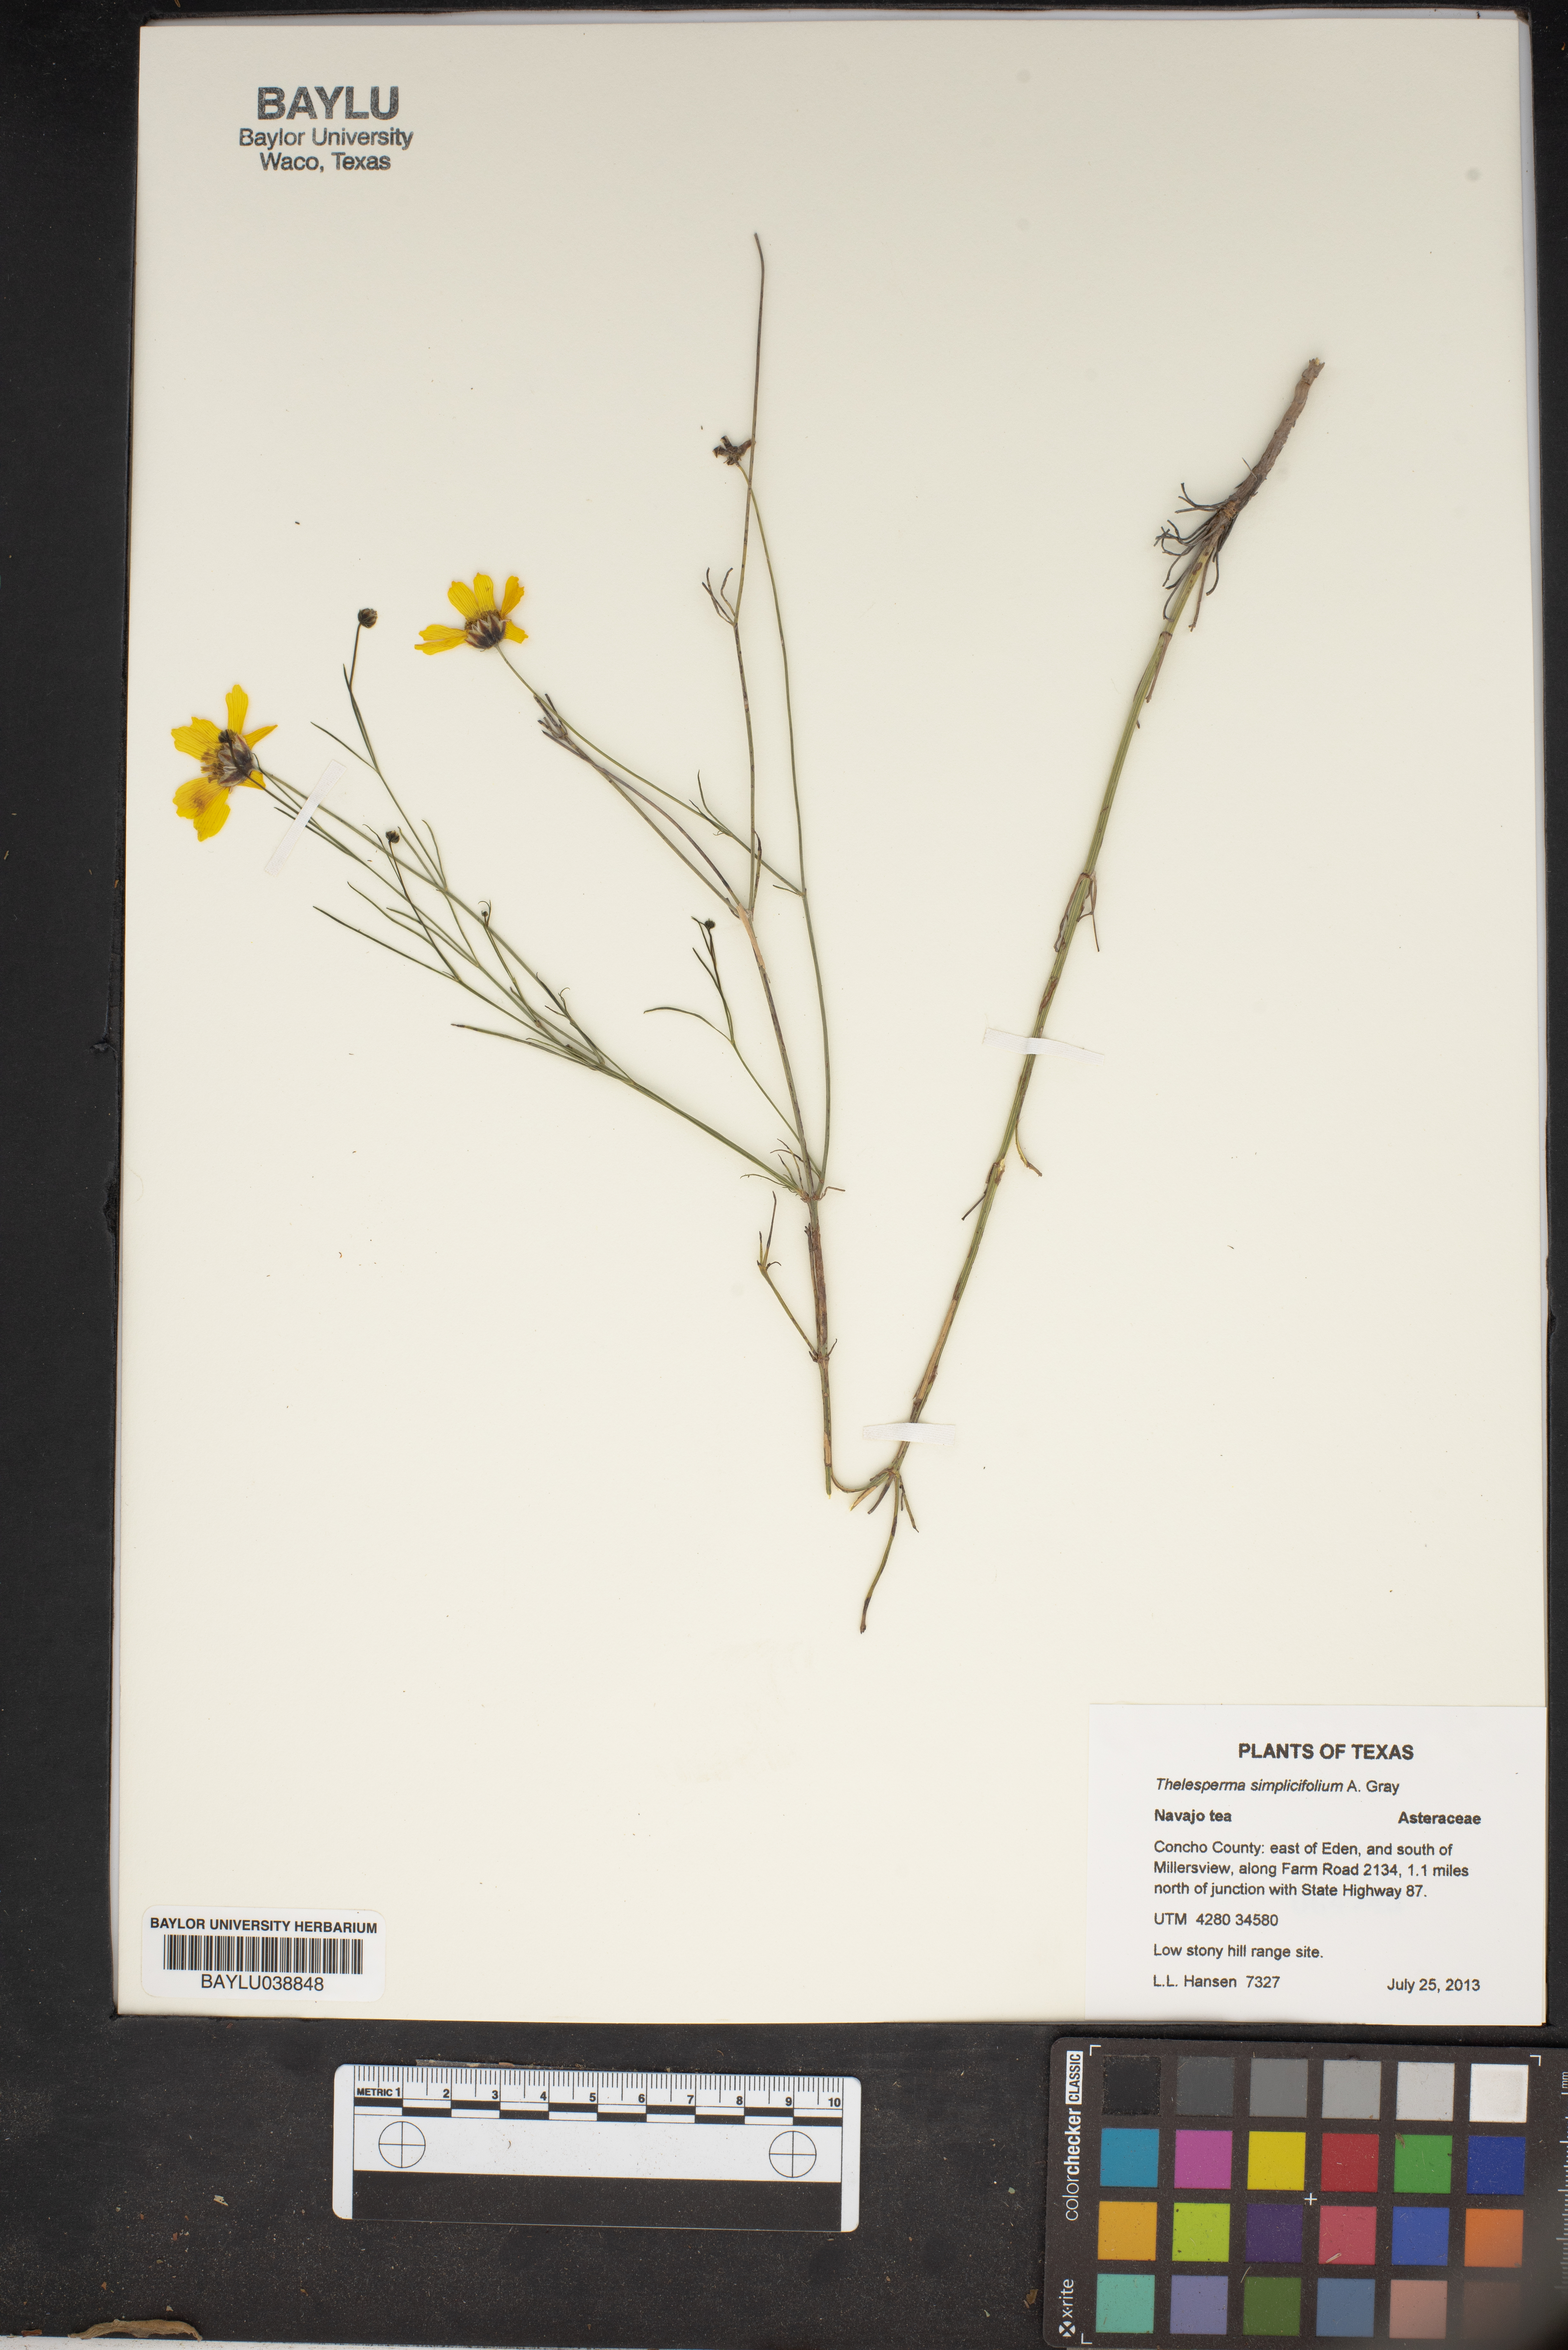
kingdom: Plantae
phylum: Tracheophyta
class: Magnoliopsida
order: Asterales
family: Asteraceae
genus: Thelesperma
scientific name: Thelesperma simplicifolium
